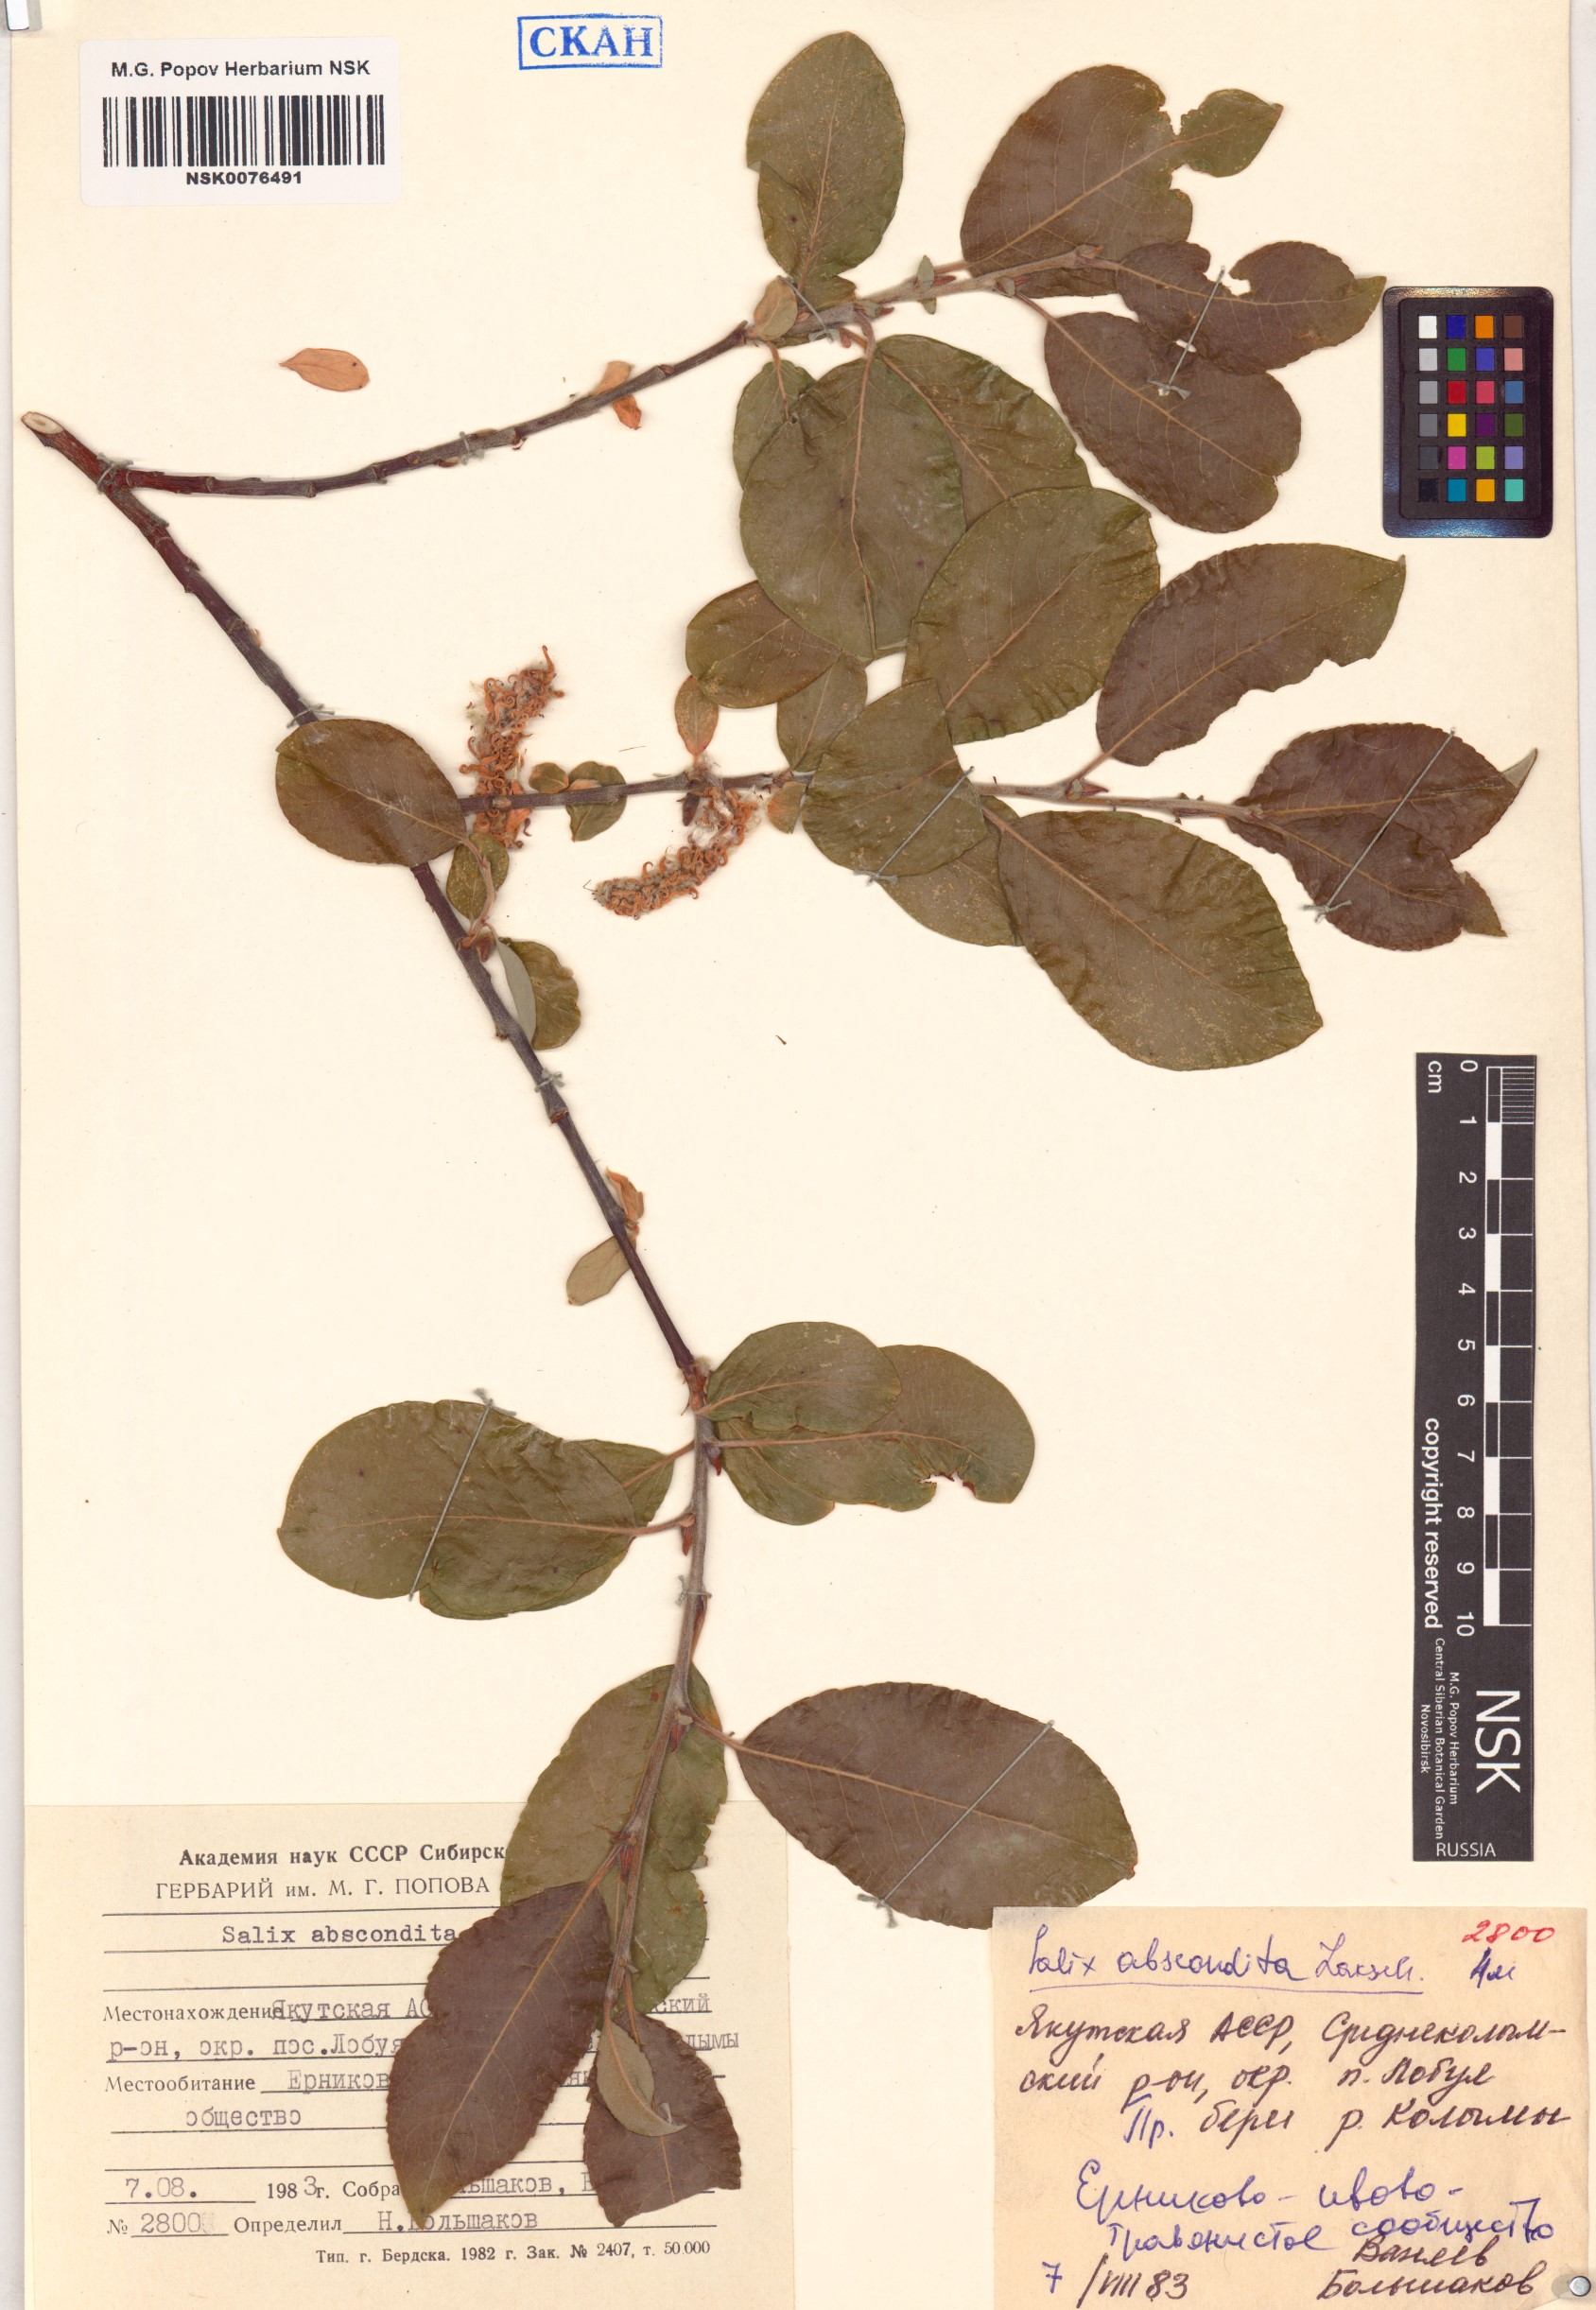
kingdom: Plantae
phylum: Tracheophyta
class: Magnoliopsida
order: Malpighiales
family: Salicaceae
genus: Salix
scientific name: Salix abscondita
